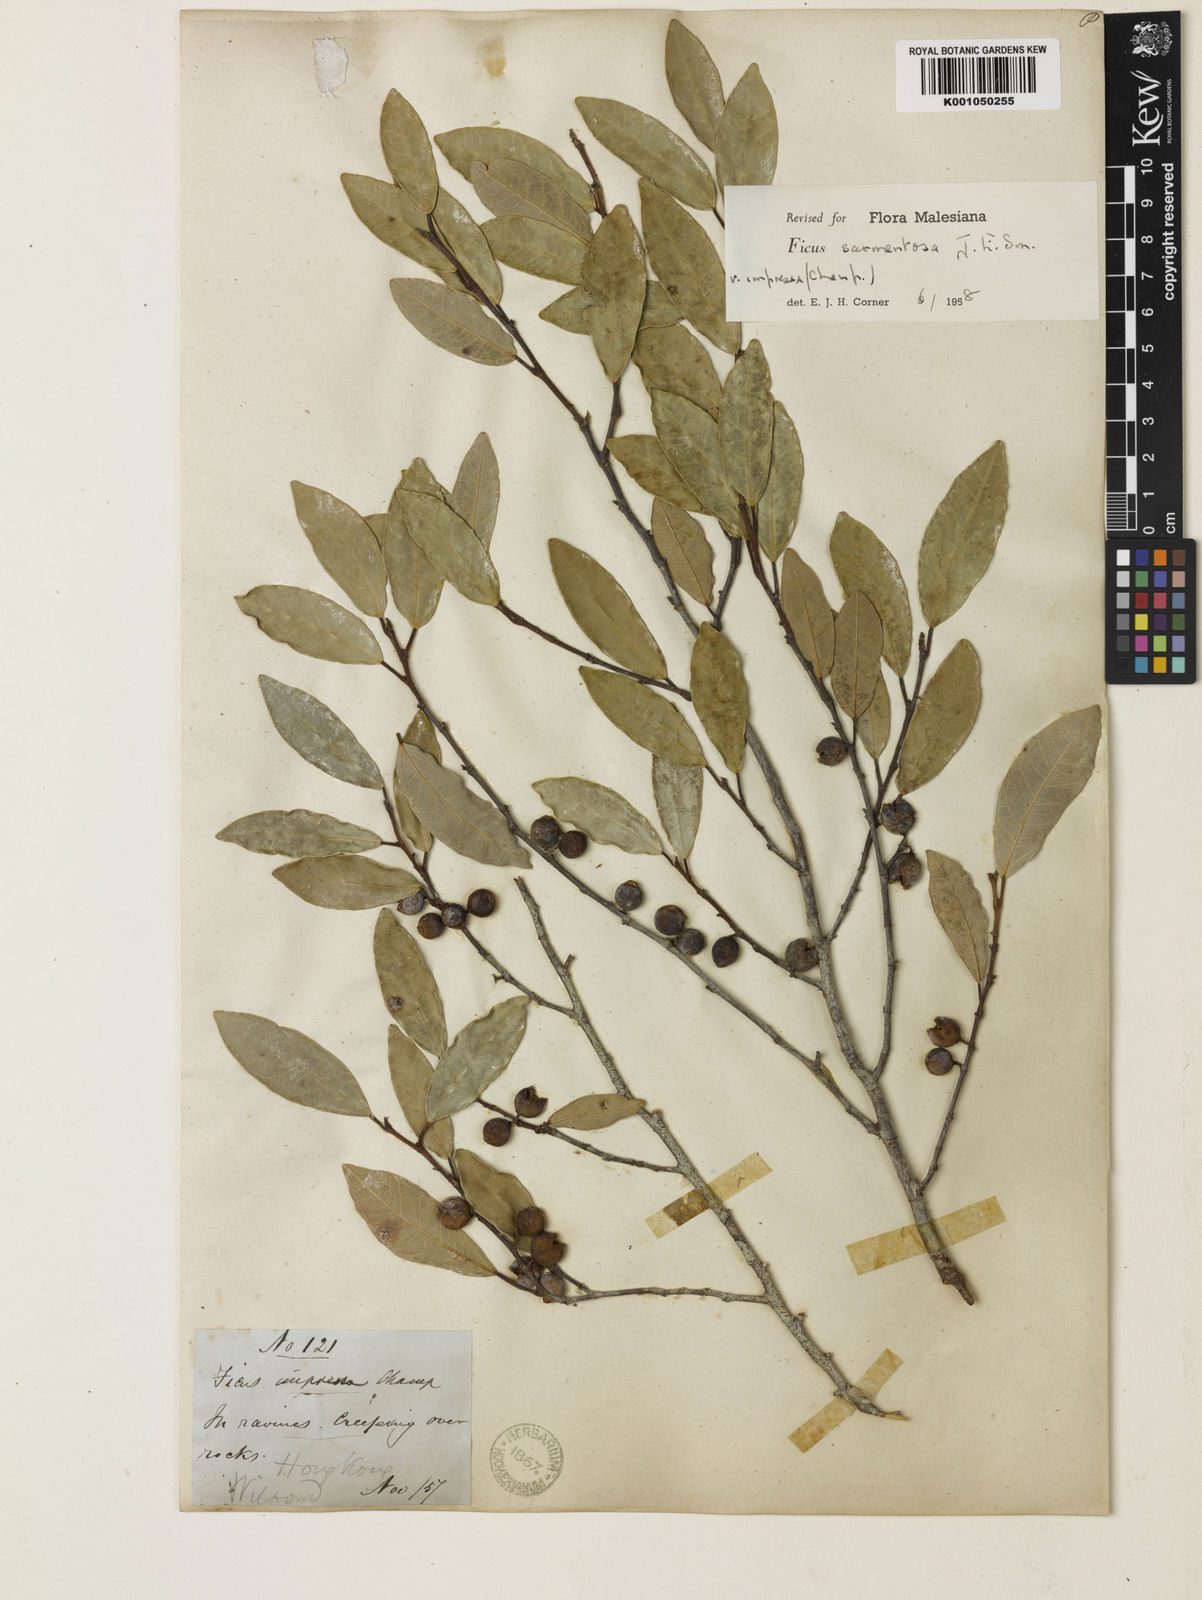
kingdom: Plantae
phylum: Tracheophyta
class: Magnoliopsida
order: Rosales
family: Moraceae
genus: Ficus
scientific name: Ficus sarmentosa
